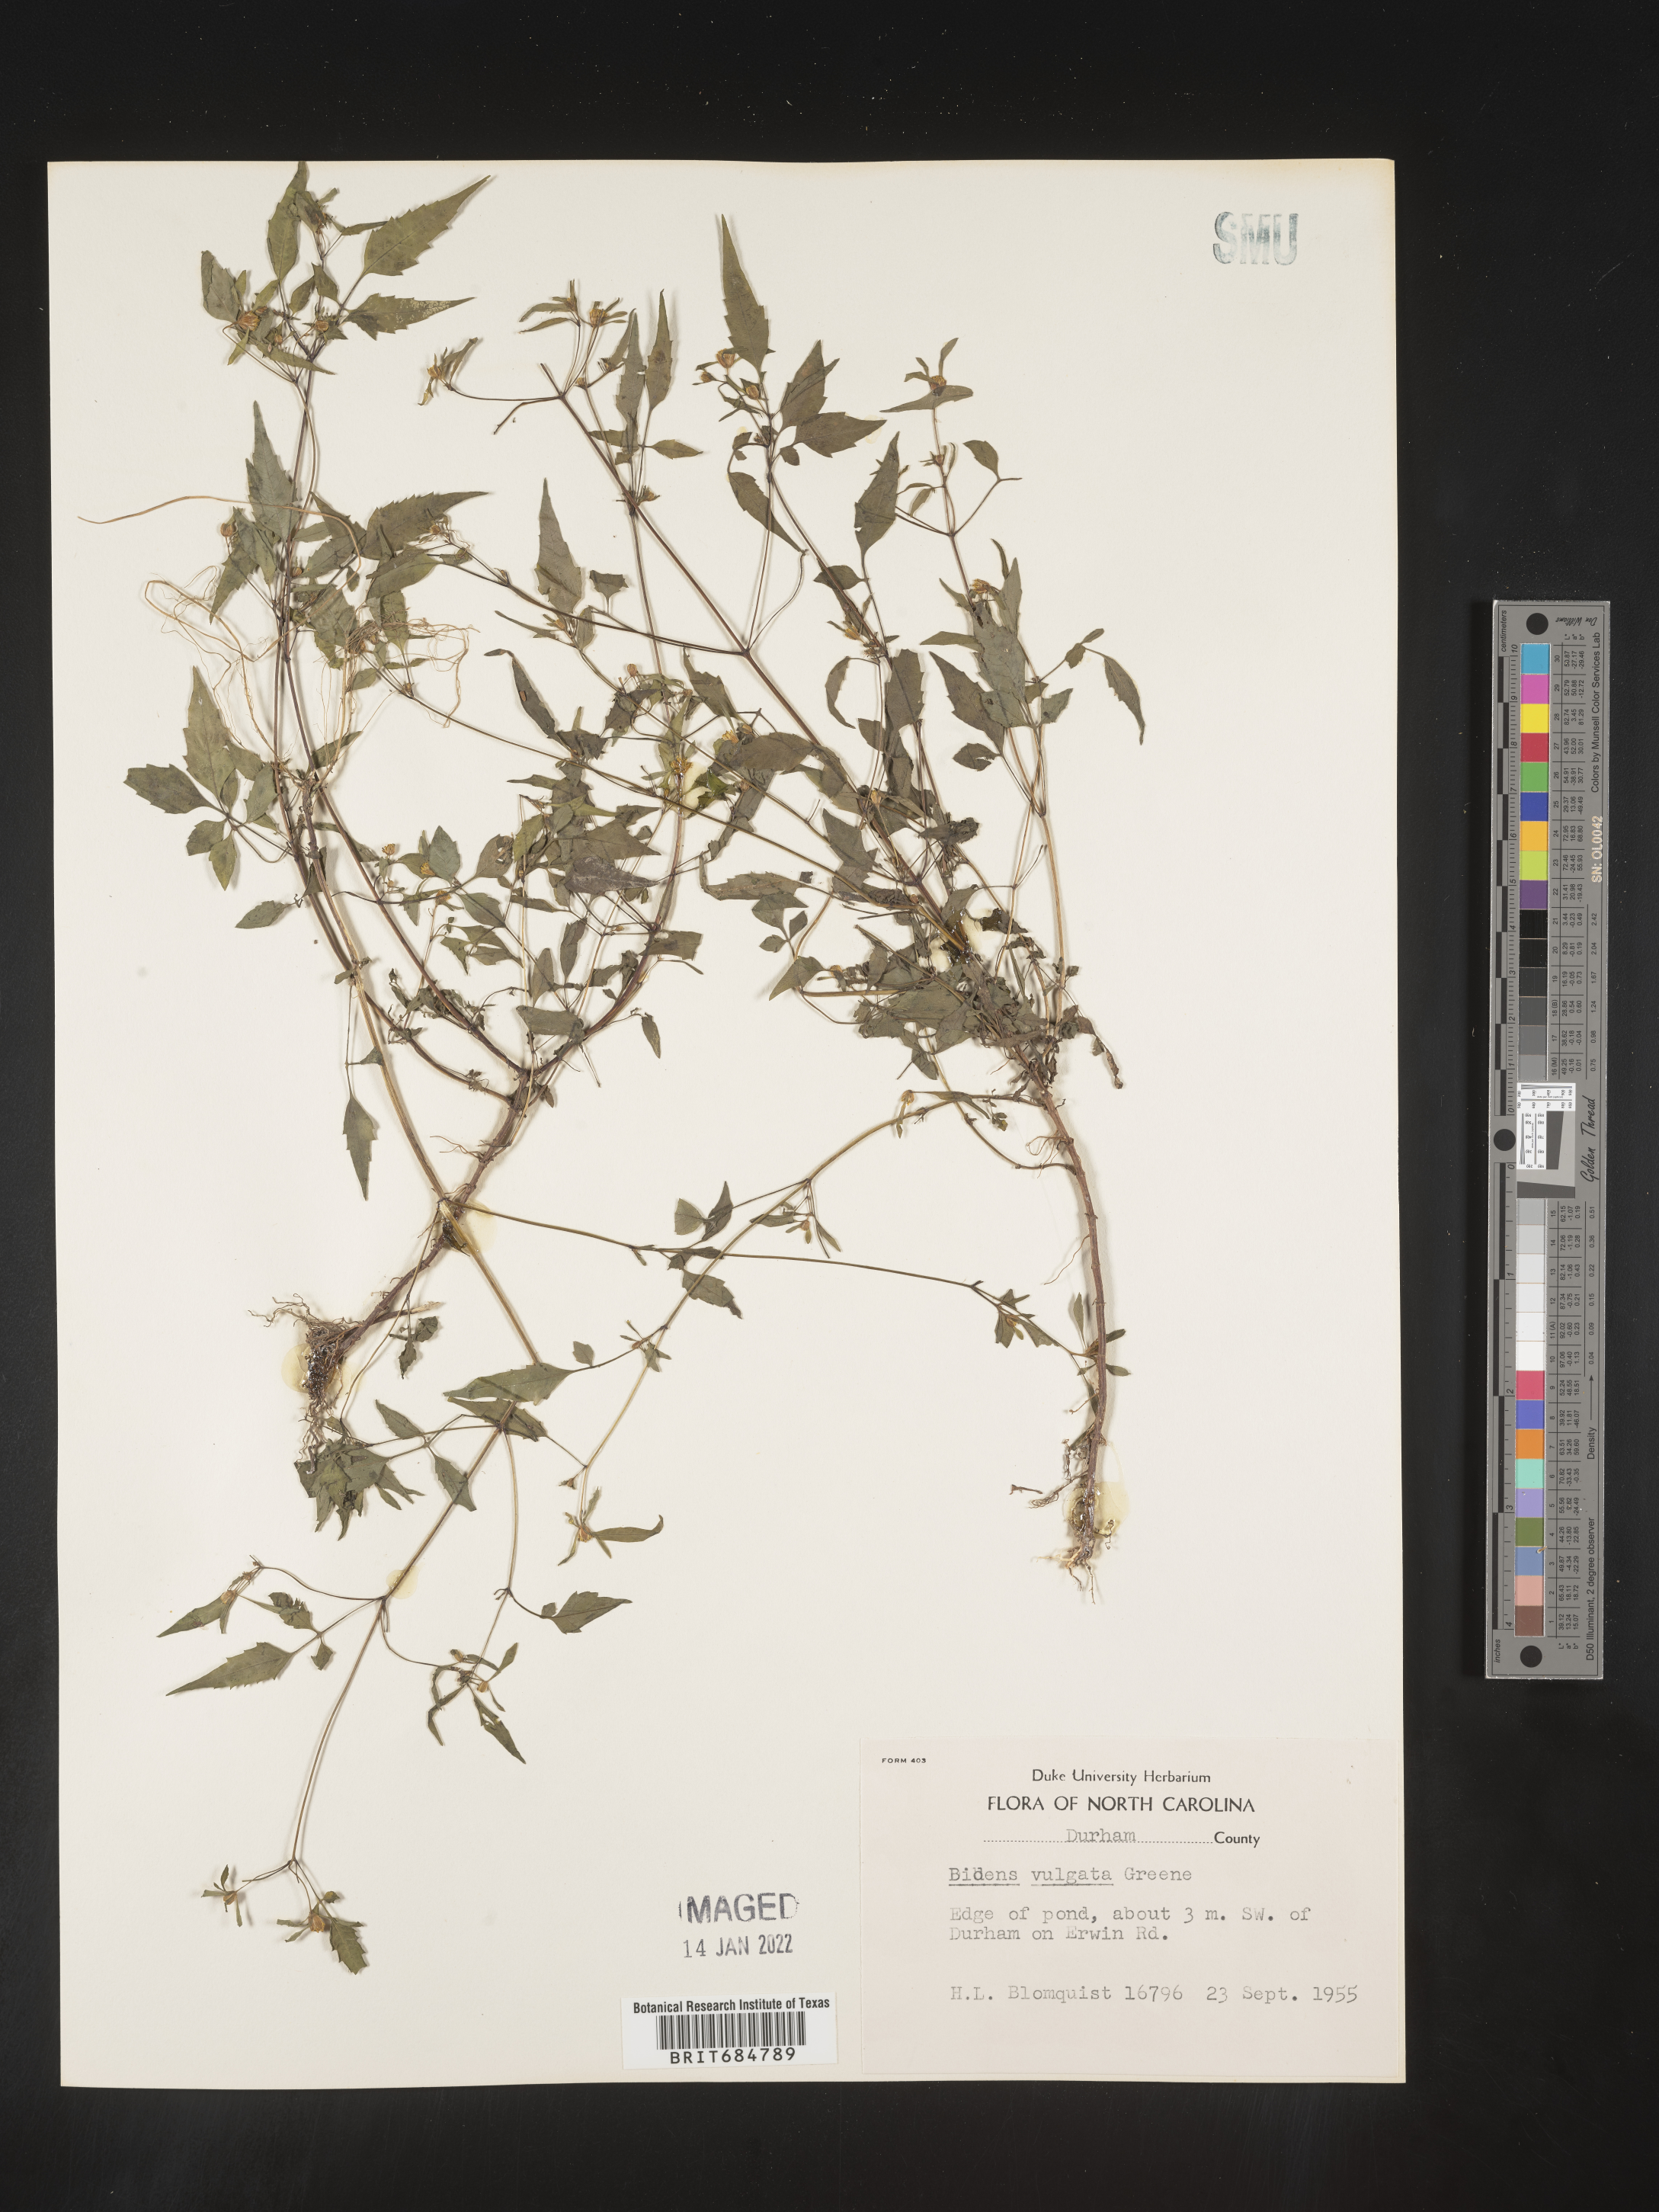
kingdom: Plantae
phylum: Tracheophyta
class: Magnoliopsida
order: Asterales
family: Asteraceae
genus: Bidens
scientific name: Bidens vulgata
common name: Tall beggarticks
